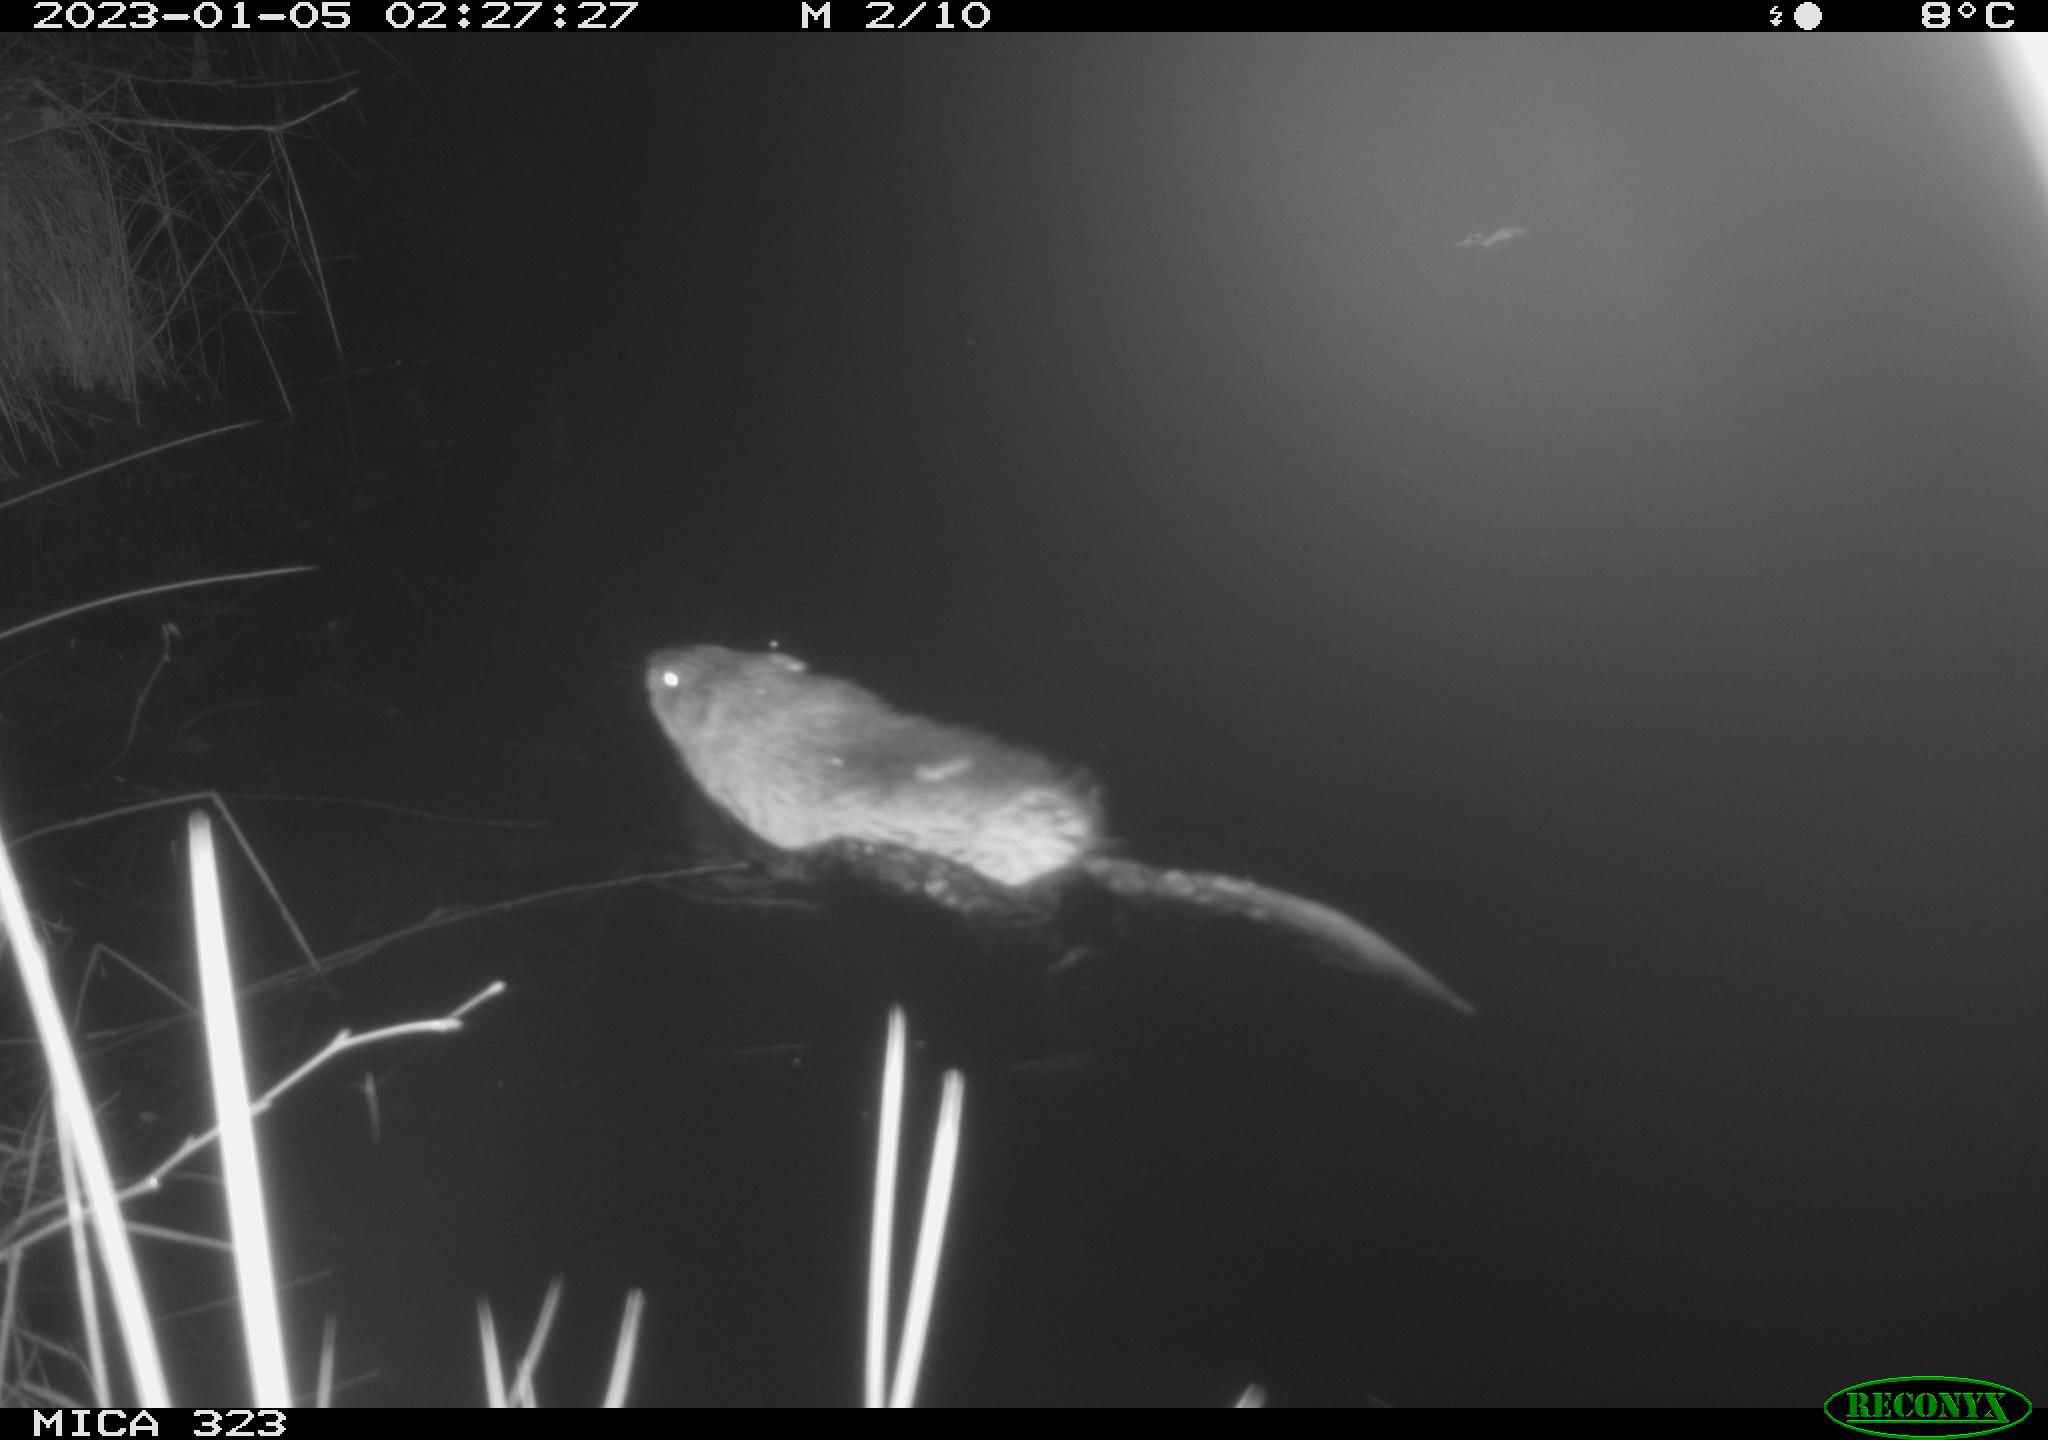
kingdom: Animalia
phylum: Chordata
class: Mammalia
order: Rodentia
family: Cricetidae
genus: Ondatra
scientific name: Ondatra zibethicus
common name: Muskrat
